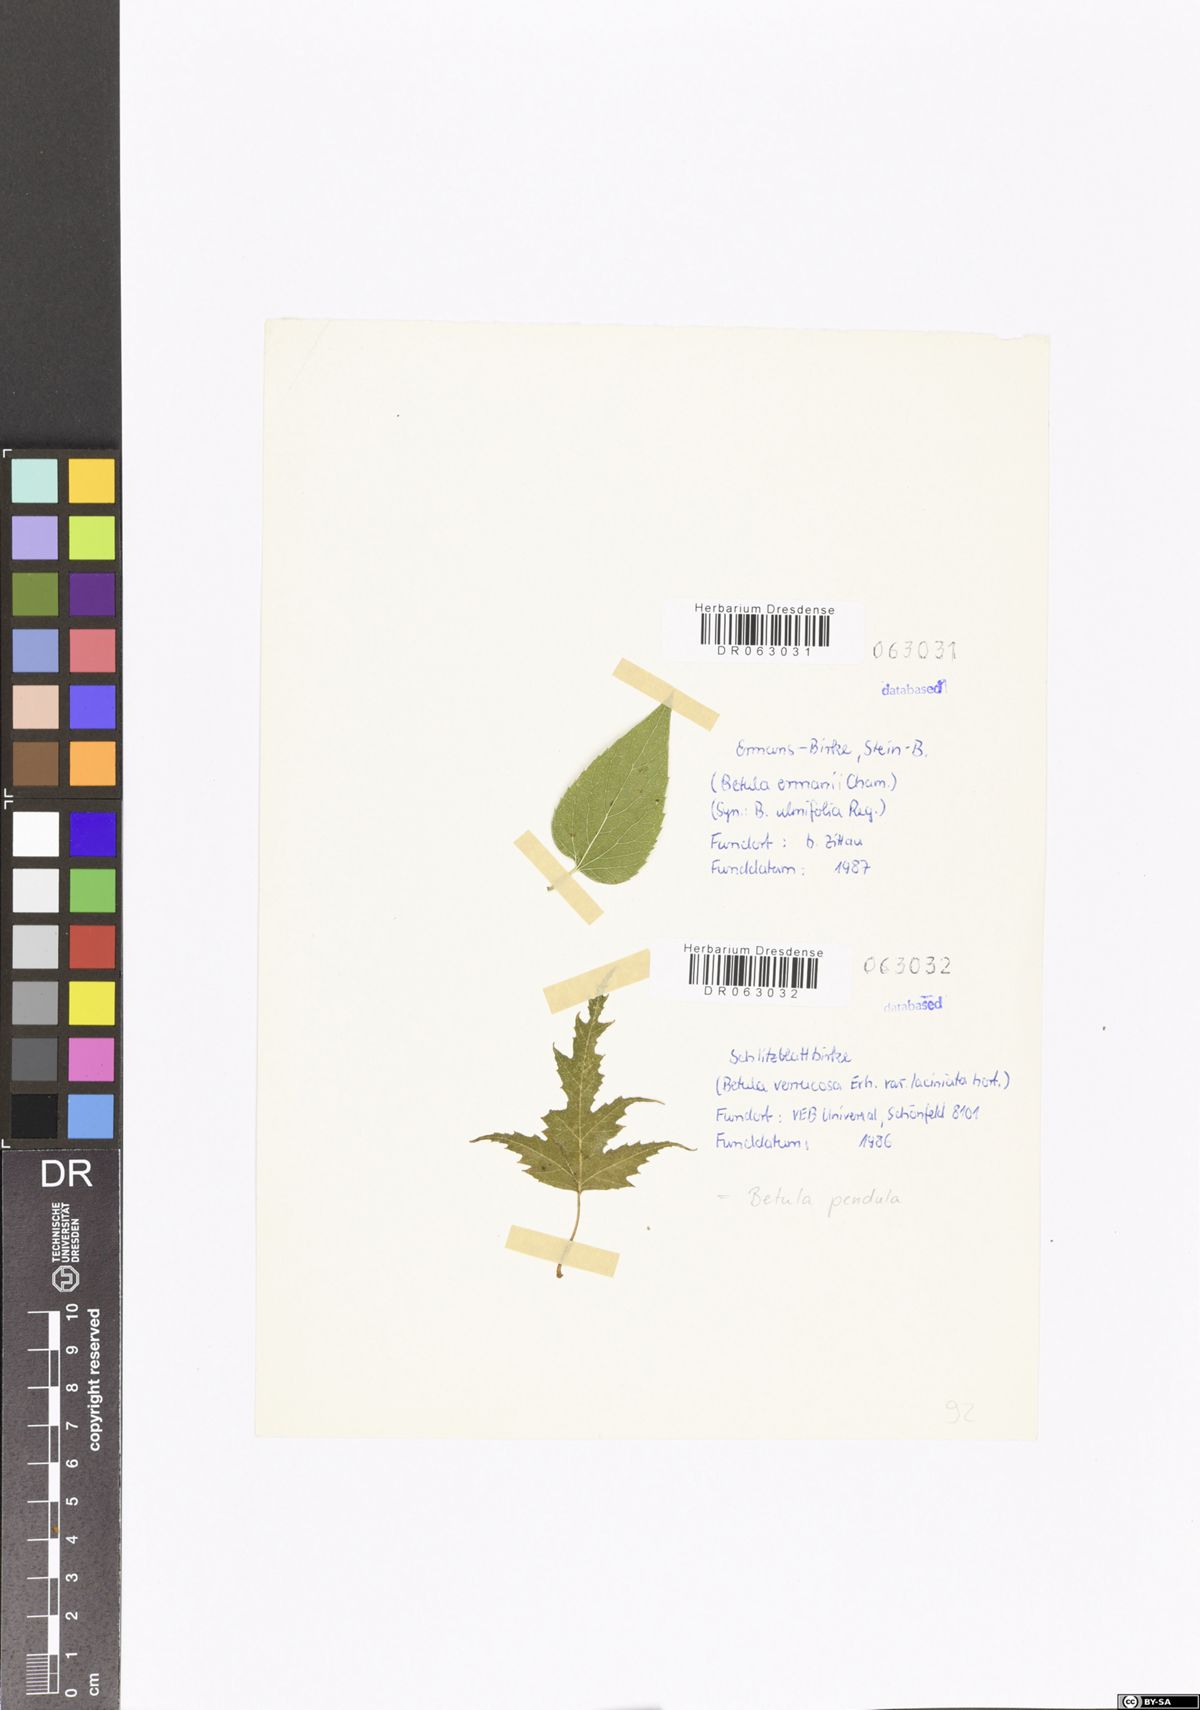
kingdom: Plantae
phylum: Tracheophyta
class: Magnoliopsida
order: Fagales
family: Betulaceae
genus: Betula
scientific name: Betula ermanii
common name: Erman's birch
